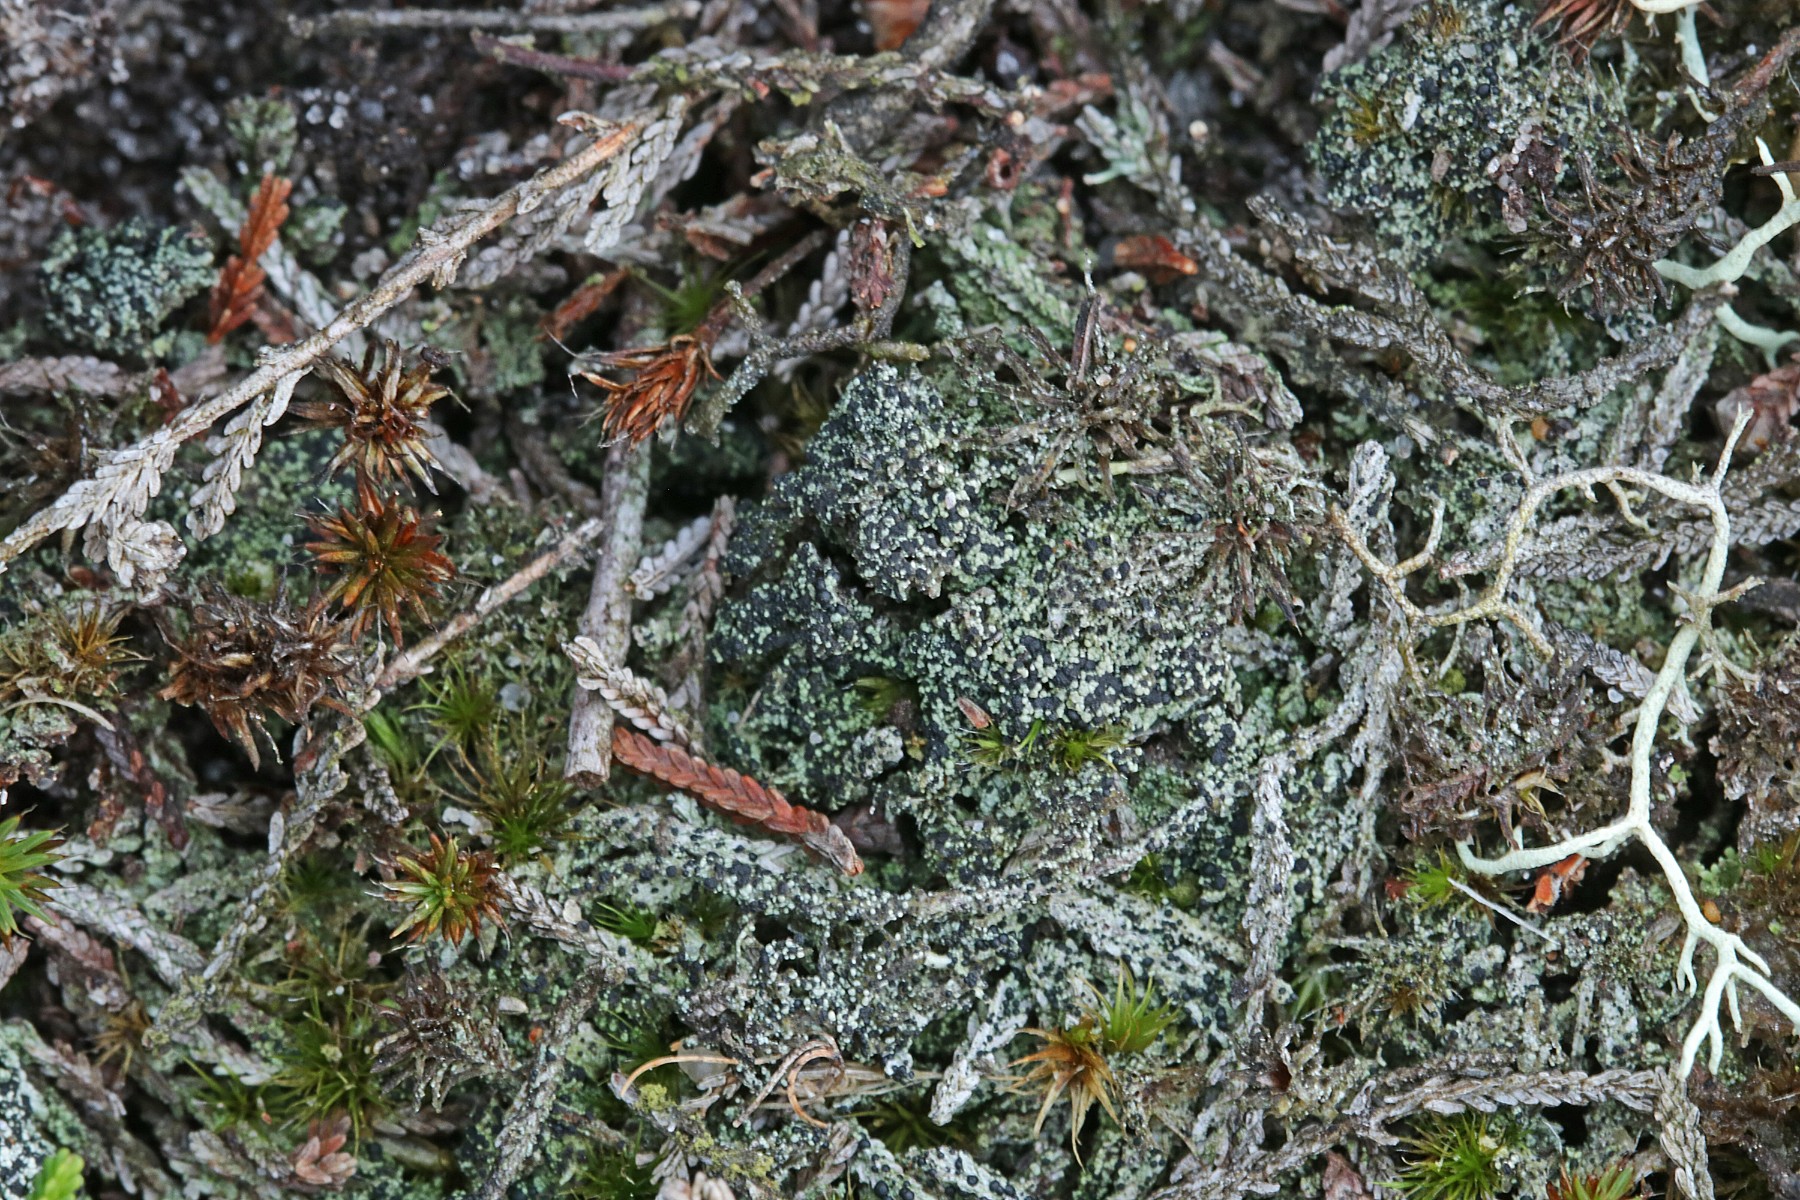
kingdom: Fungi
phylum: Ascomycota
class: Lecanoromycetes
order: Lecanorales
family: Byssolomataceae
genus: Micarea
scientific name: Micarea lignaria
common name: tørve-knaplav
